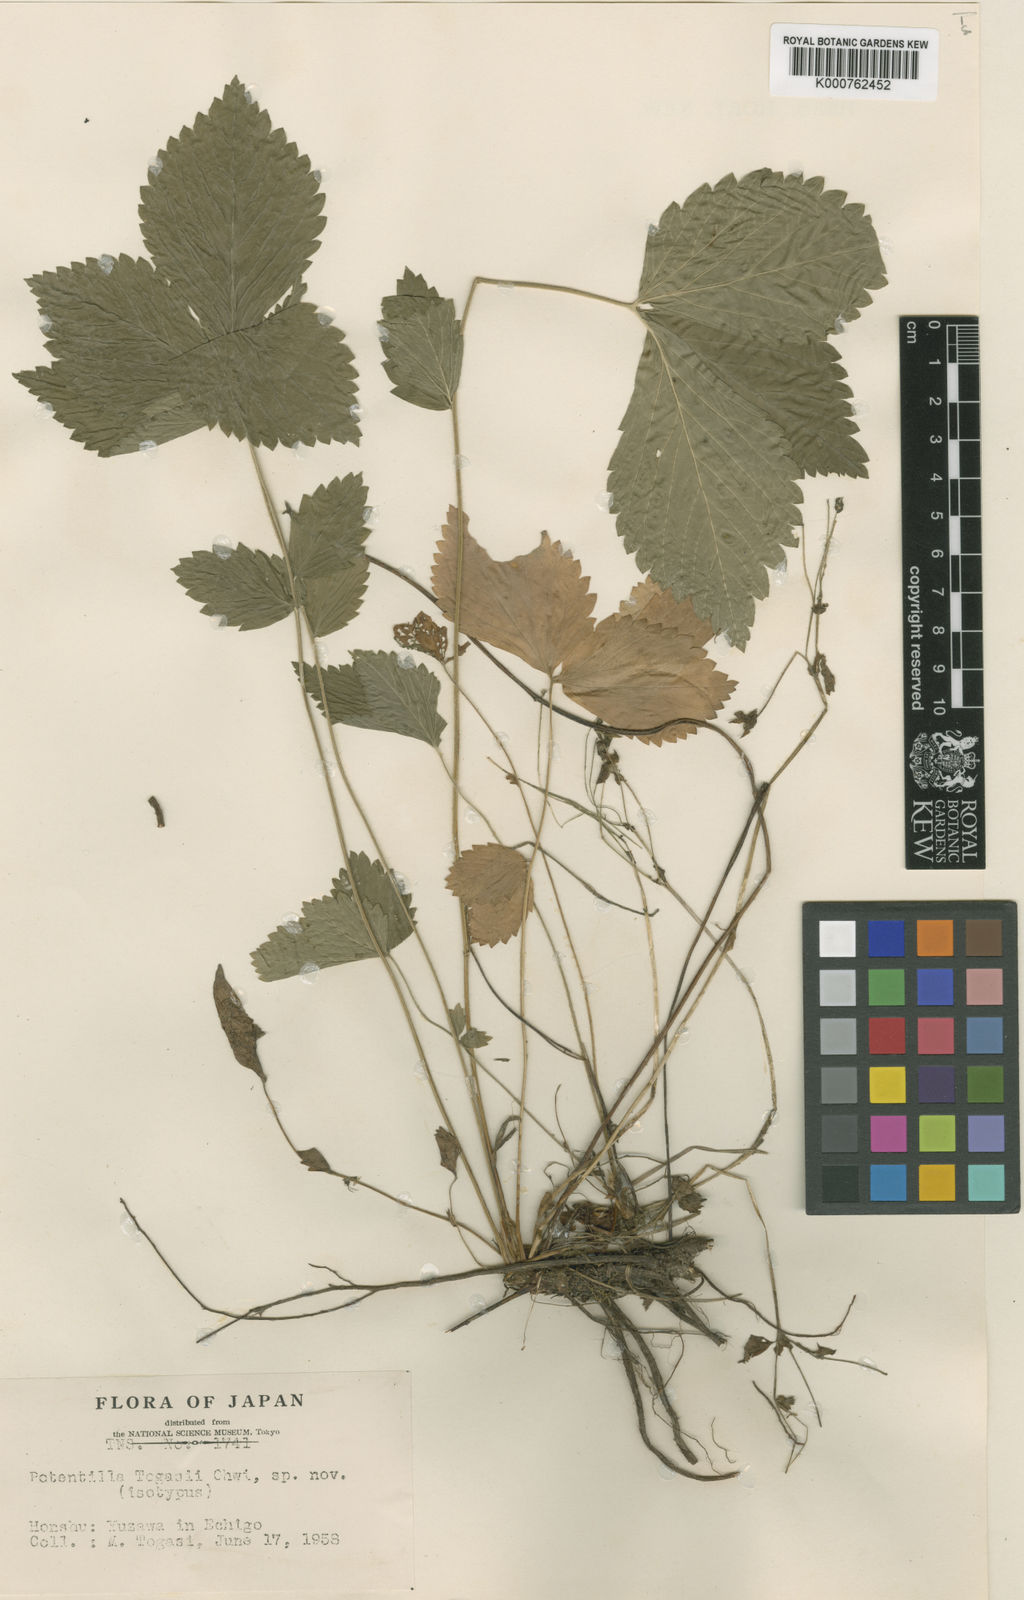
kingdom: Plantae
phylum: Tracheophyta
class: Magnoliopsida
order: Rosales
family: Rosaceae
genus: Potentilla
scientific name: Potentilla togashii
